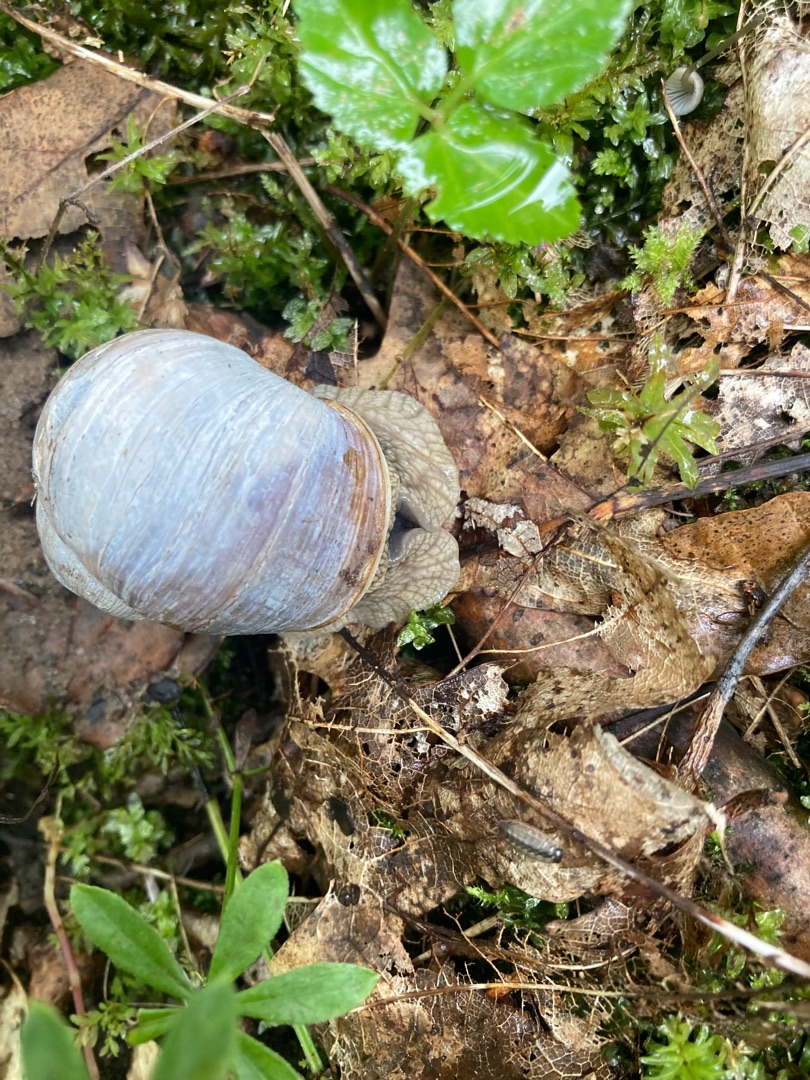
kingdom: Animalia
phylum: Mollusca
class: Gastropoda
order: Stylommatophora
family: Helicidae
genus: Helix
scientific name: Helix pomatia
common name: Vinbjergsnegl
